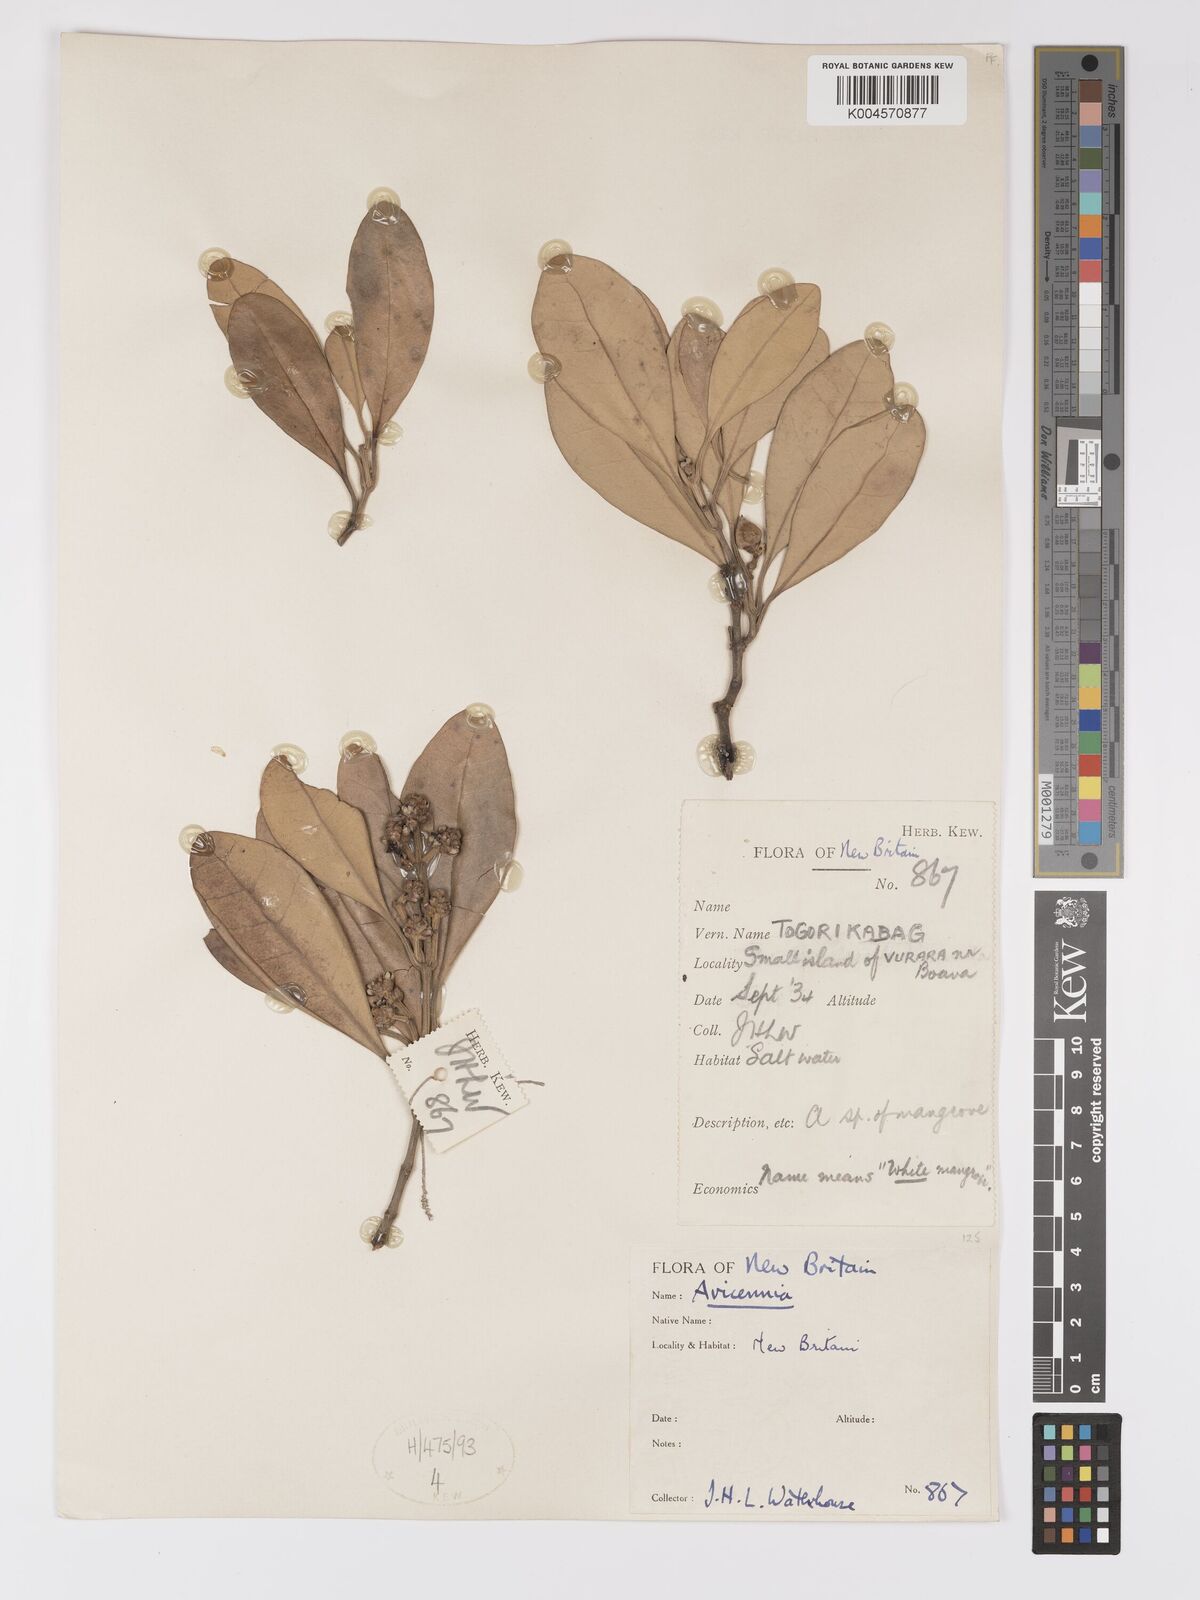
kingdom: Plantae
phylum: Tracheophyta
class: Magnoliopsida
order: Lamiales
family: Acanthaceae
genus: Avicennia
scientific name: Avicennia
